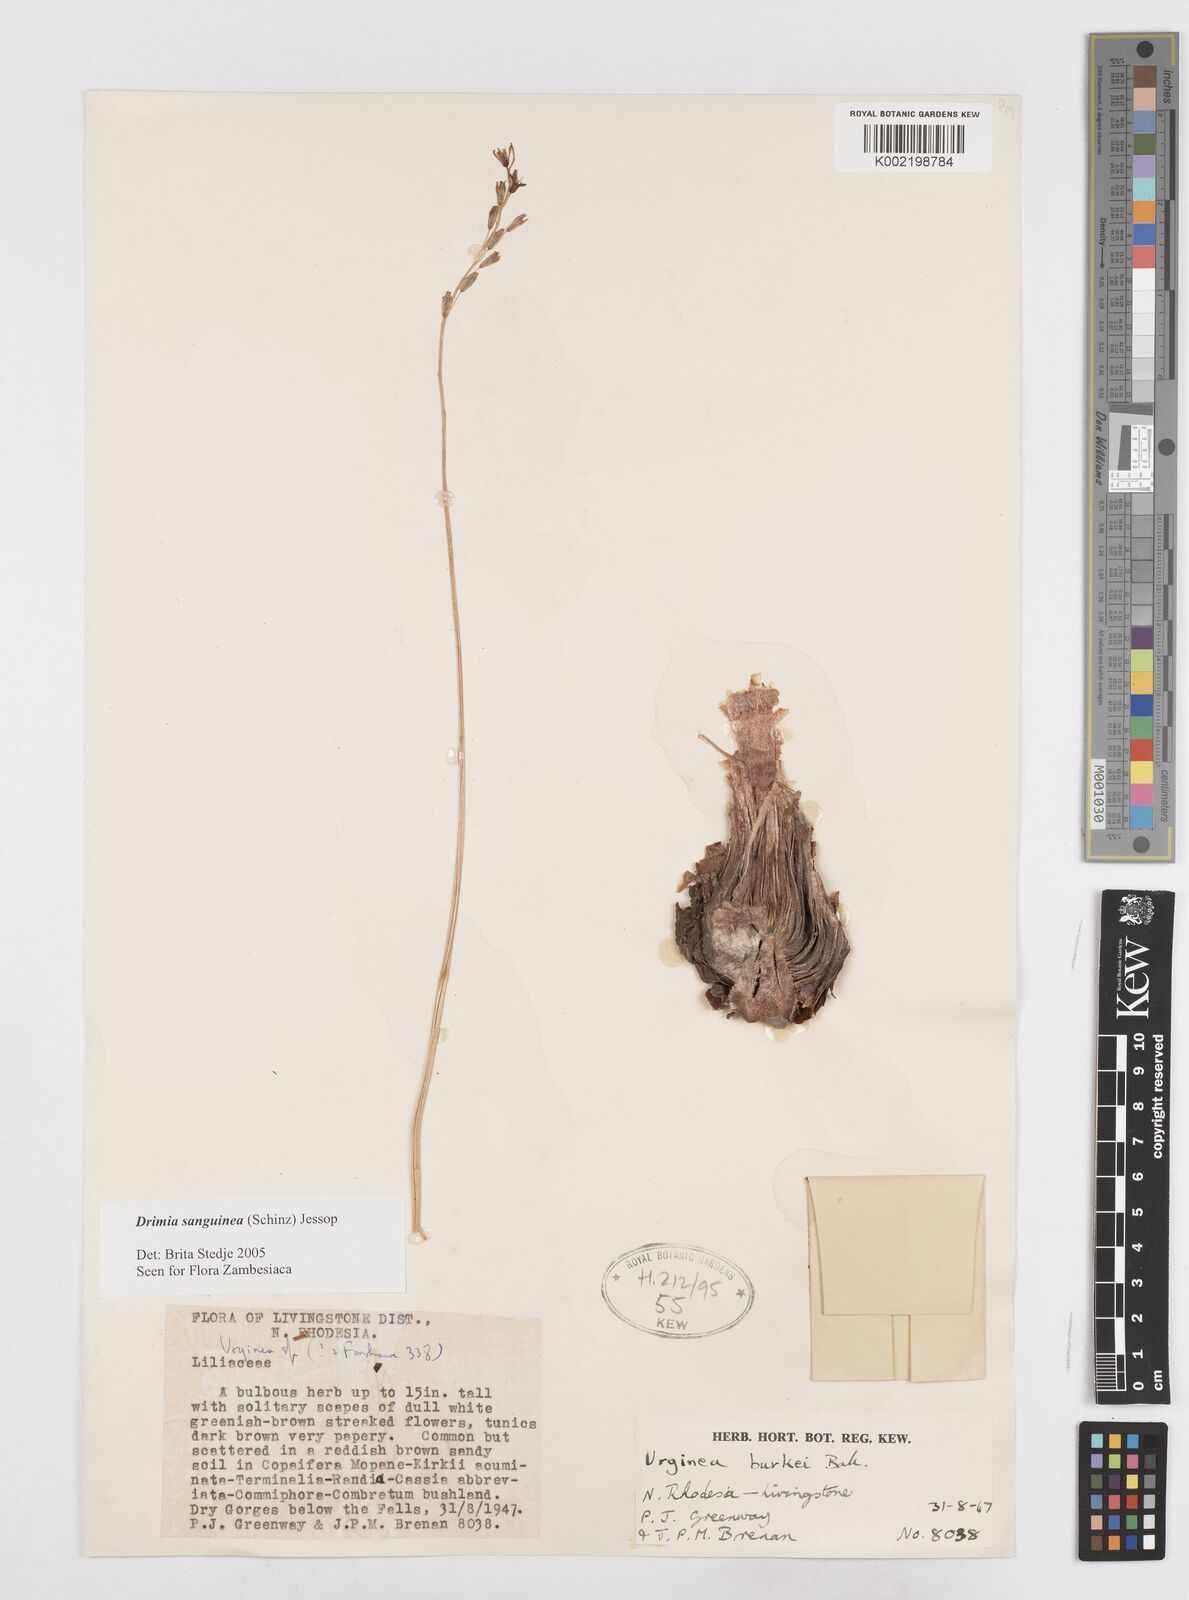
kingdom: Plantae
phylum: Tracheophyta
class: Liliopsida
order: Asparagales
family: Asparagaceae
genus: Drimia
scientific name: Drimia sanguinea
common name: Transvaal slangkop
